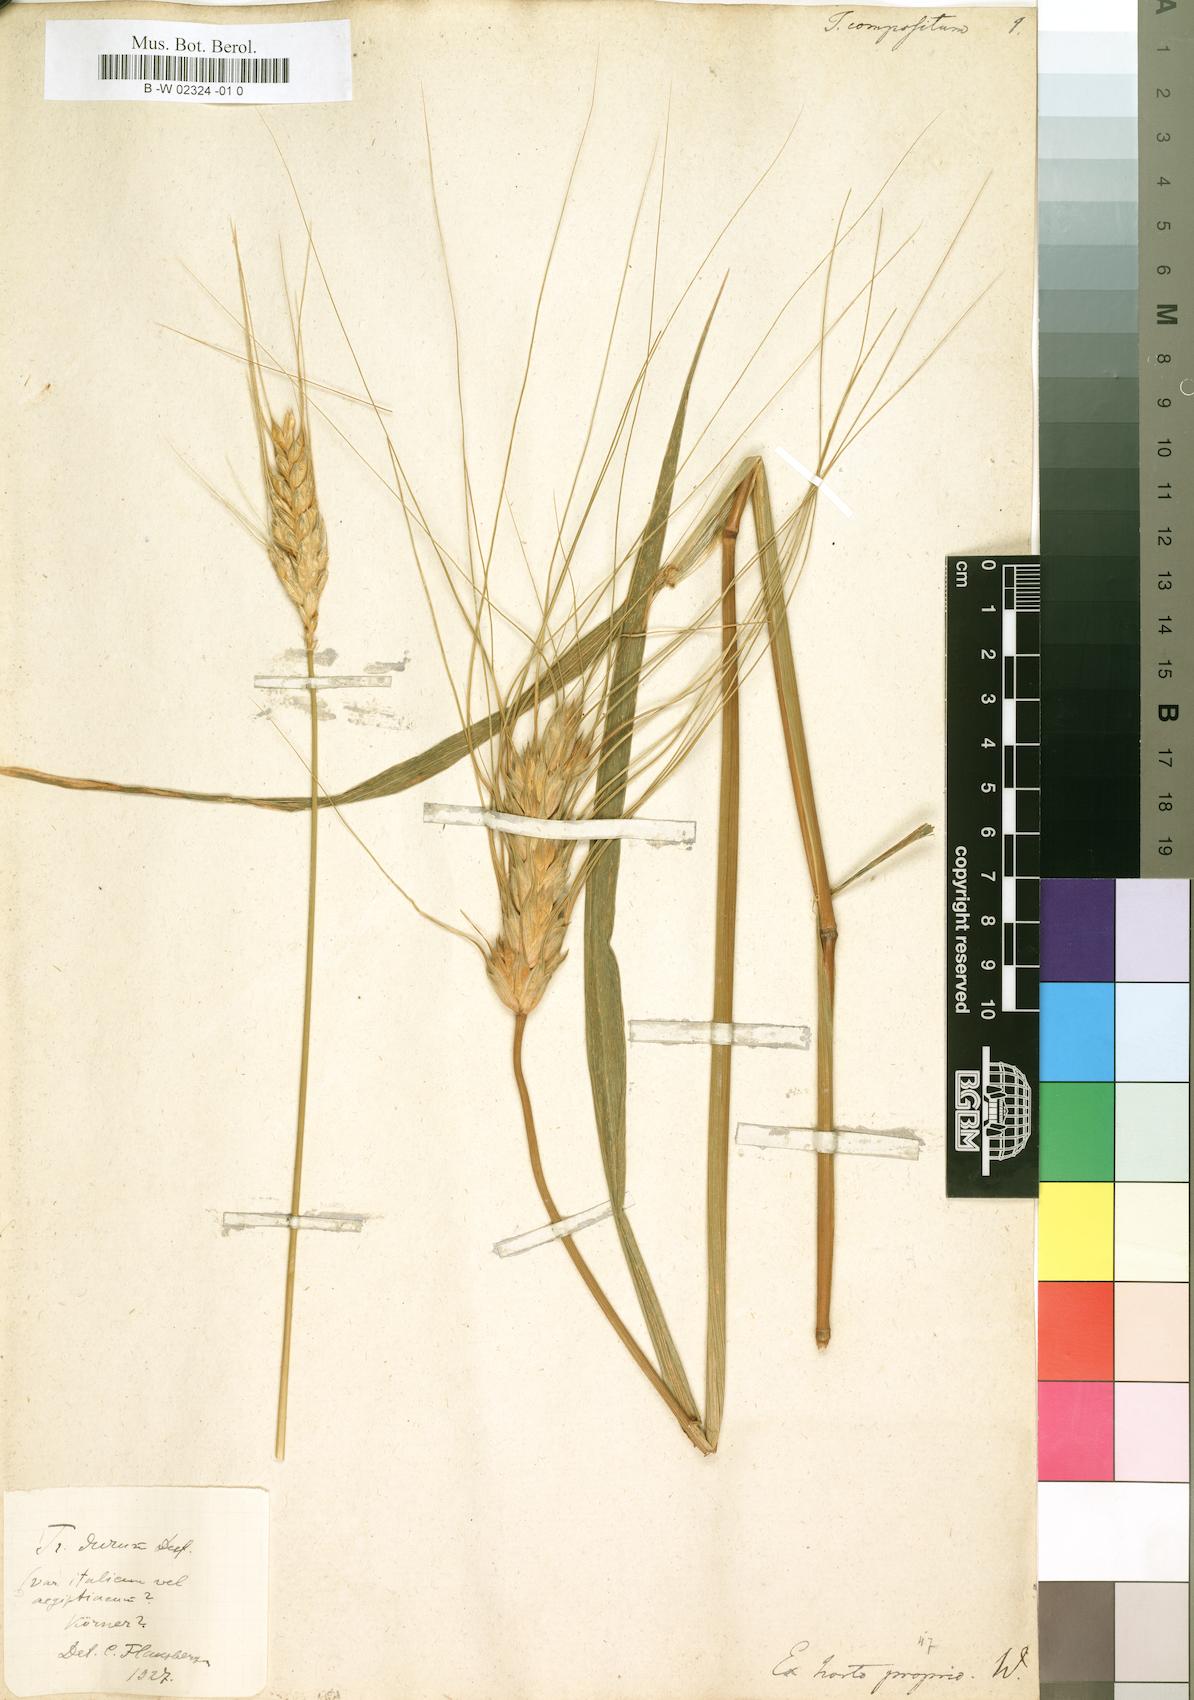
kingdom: Plantae
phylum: Tracheophyta
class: Liliopsida
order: Poales
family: Poaceae
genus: Triticum
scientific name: Triticum turgidum
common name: Rivet wheat
